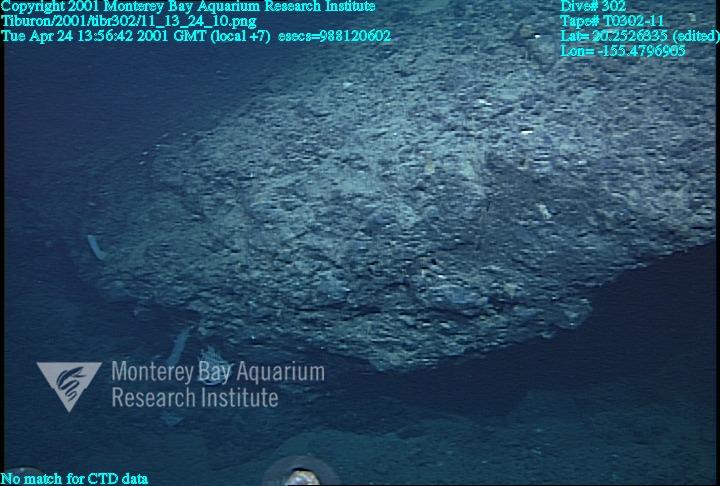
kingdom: Animalia
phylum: Porifera
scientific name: Porifera
